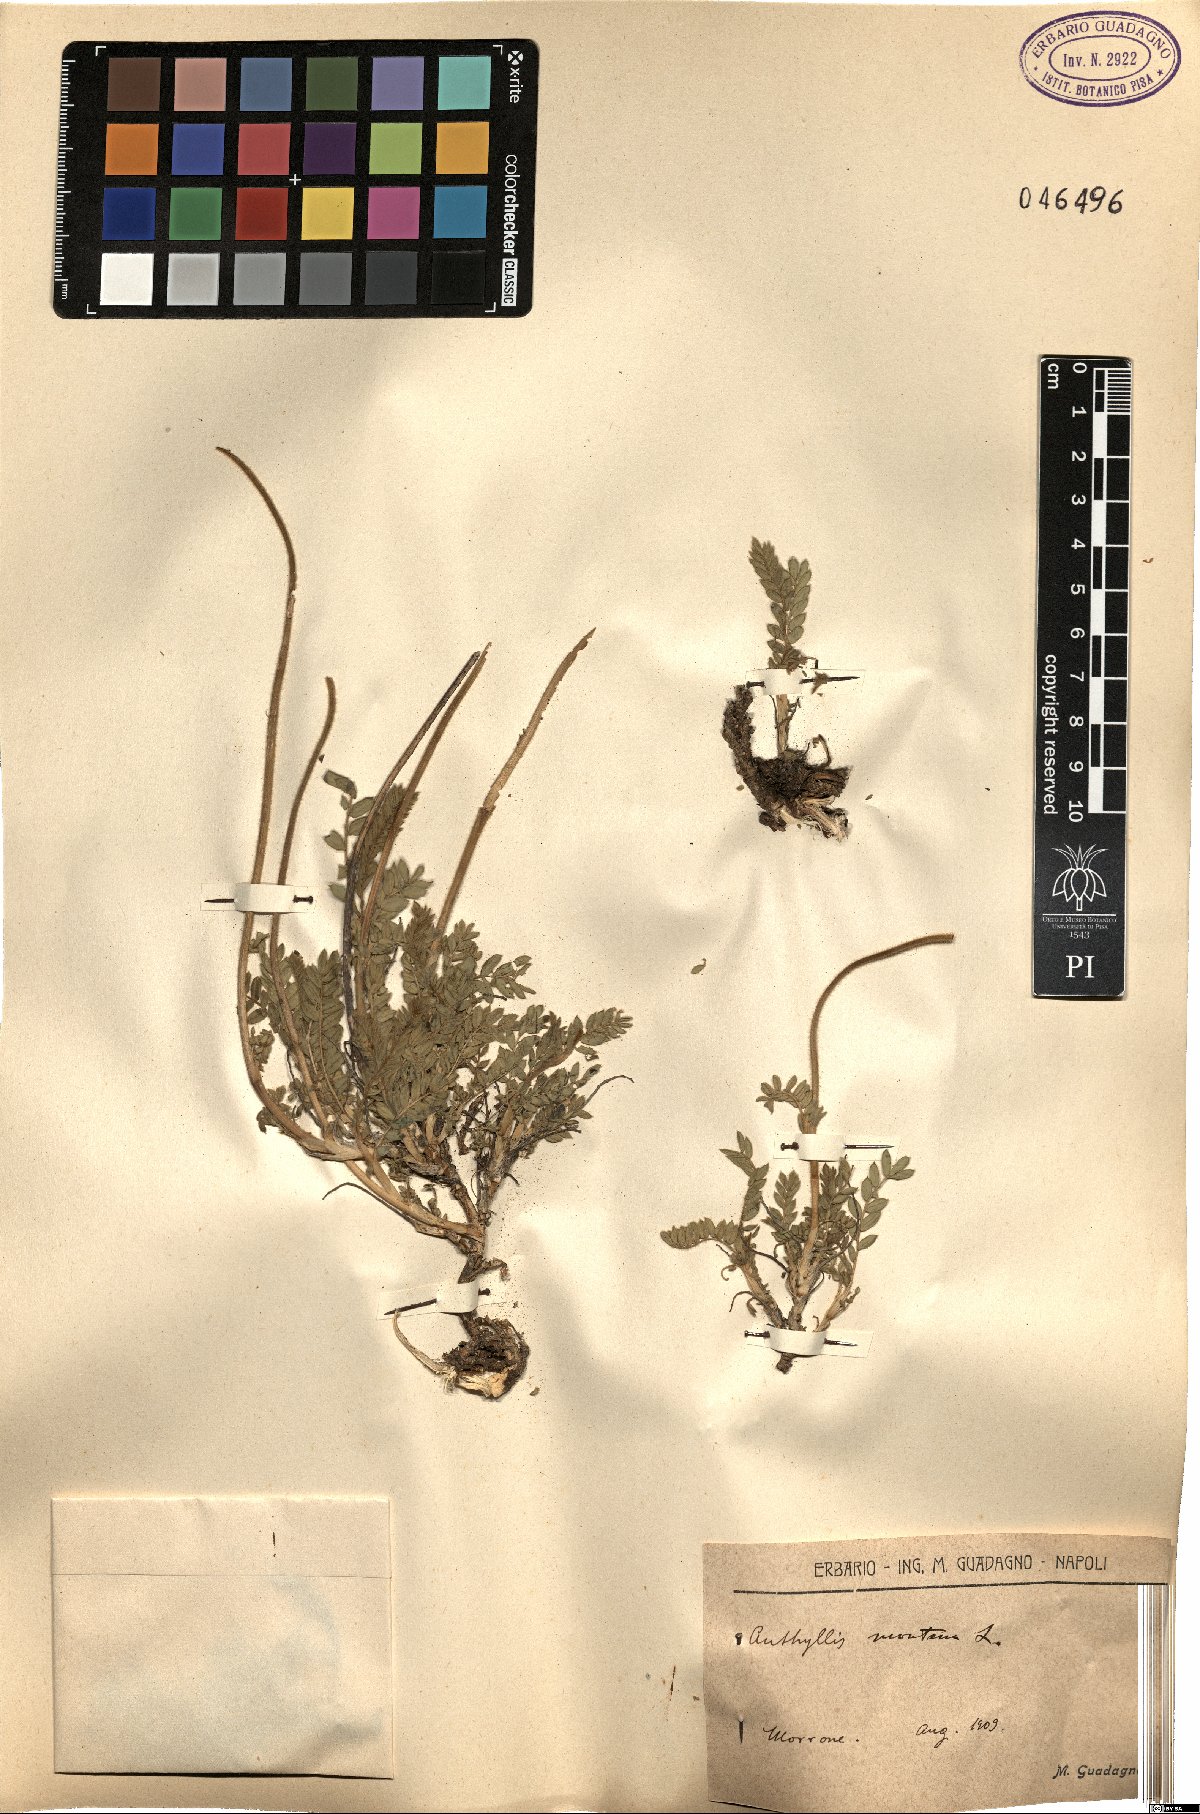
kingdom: Plantae
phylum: Tracheophyta
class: Magnoliopsida
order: Fabales
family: Fabaceae
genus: Anthyllis
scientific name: Anthyllis montana
